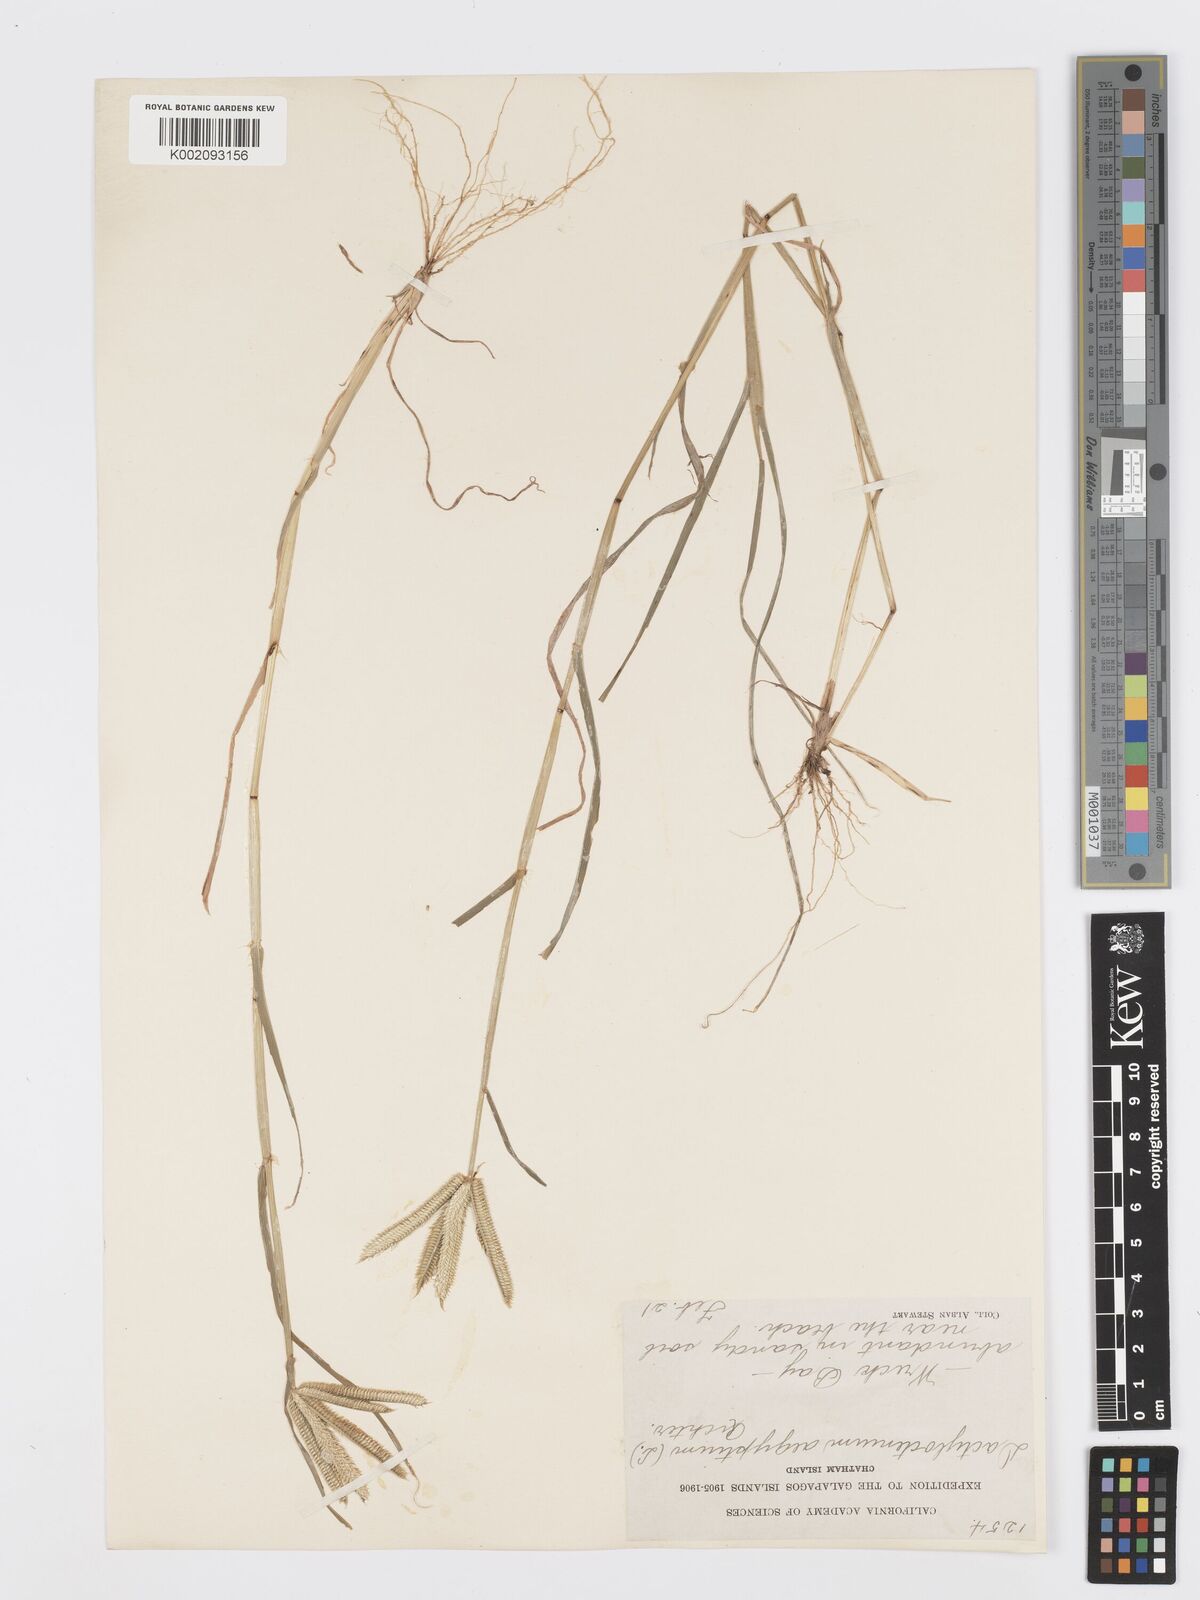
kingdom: Plantae
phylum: Tracheophyta
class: Liliopsida
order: Poales
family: Poaceae
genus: Dactyloctenium
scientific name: Dactyloctenium aegyptium
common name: Egyptian grass
